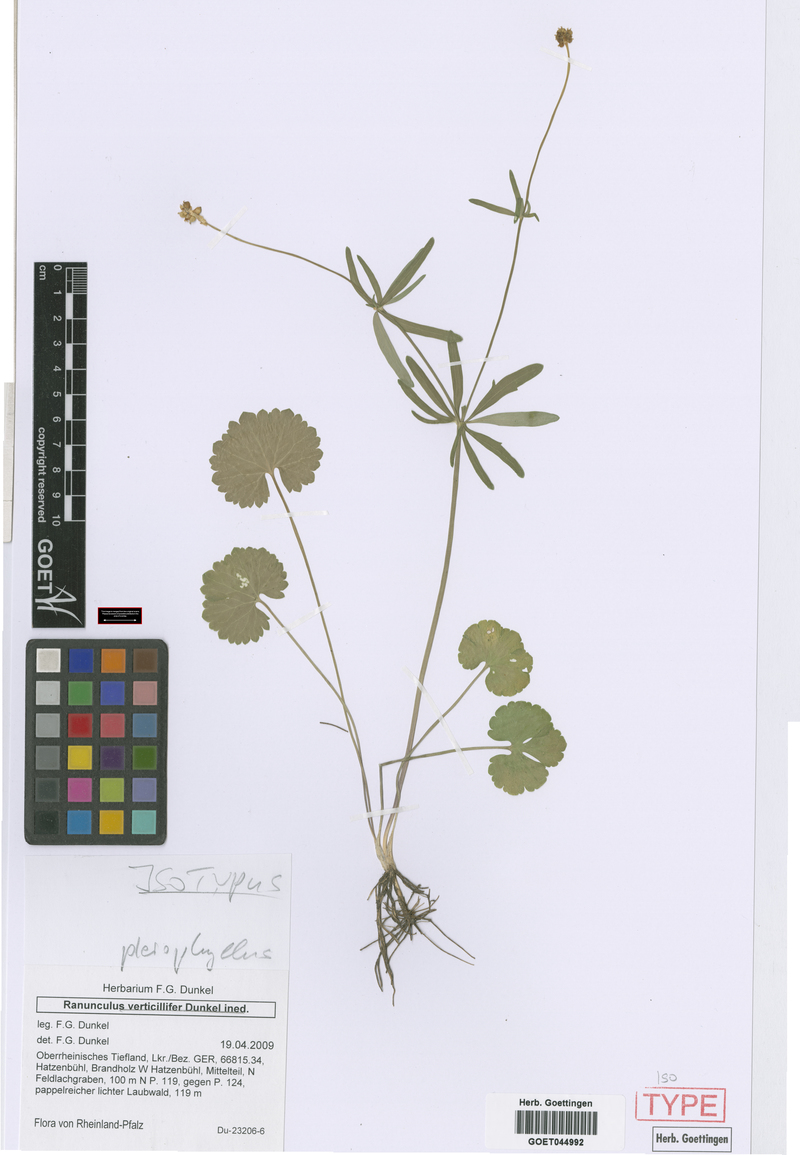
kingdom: Plantae
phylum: Tracheophyta
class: Magnoliopsida
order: Ranunculales
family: Ranunculaceae
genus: Ranunculus
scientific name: Ranunculus pleiophyllus
